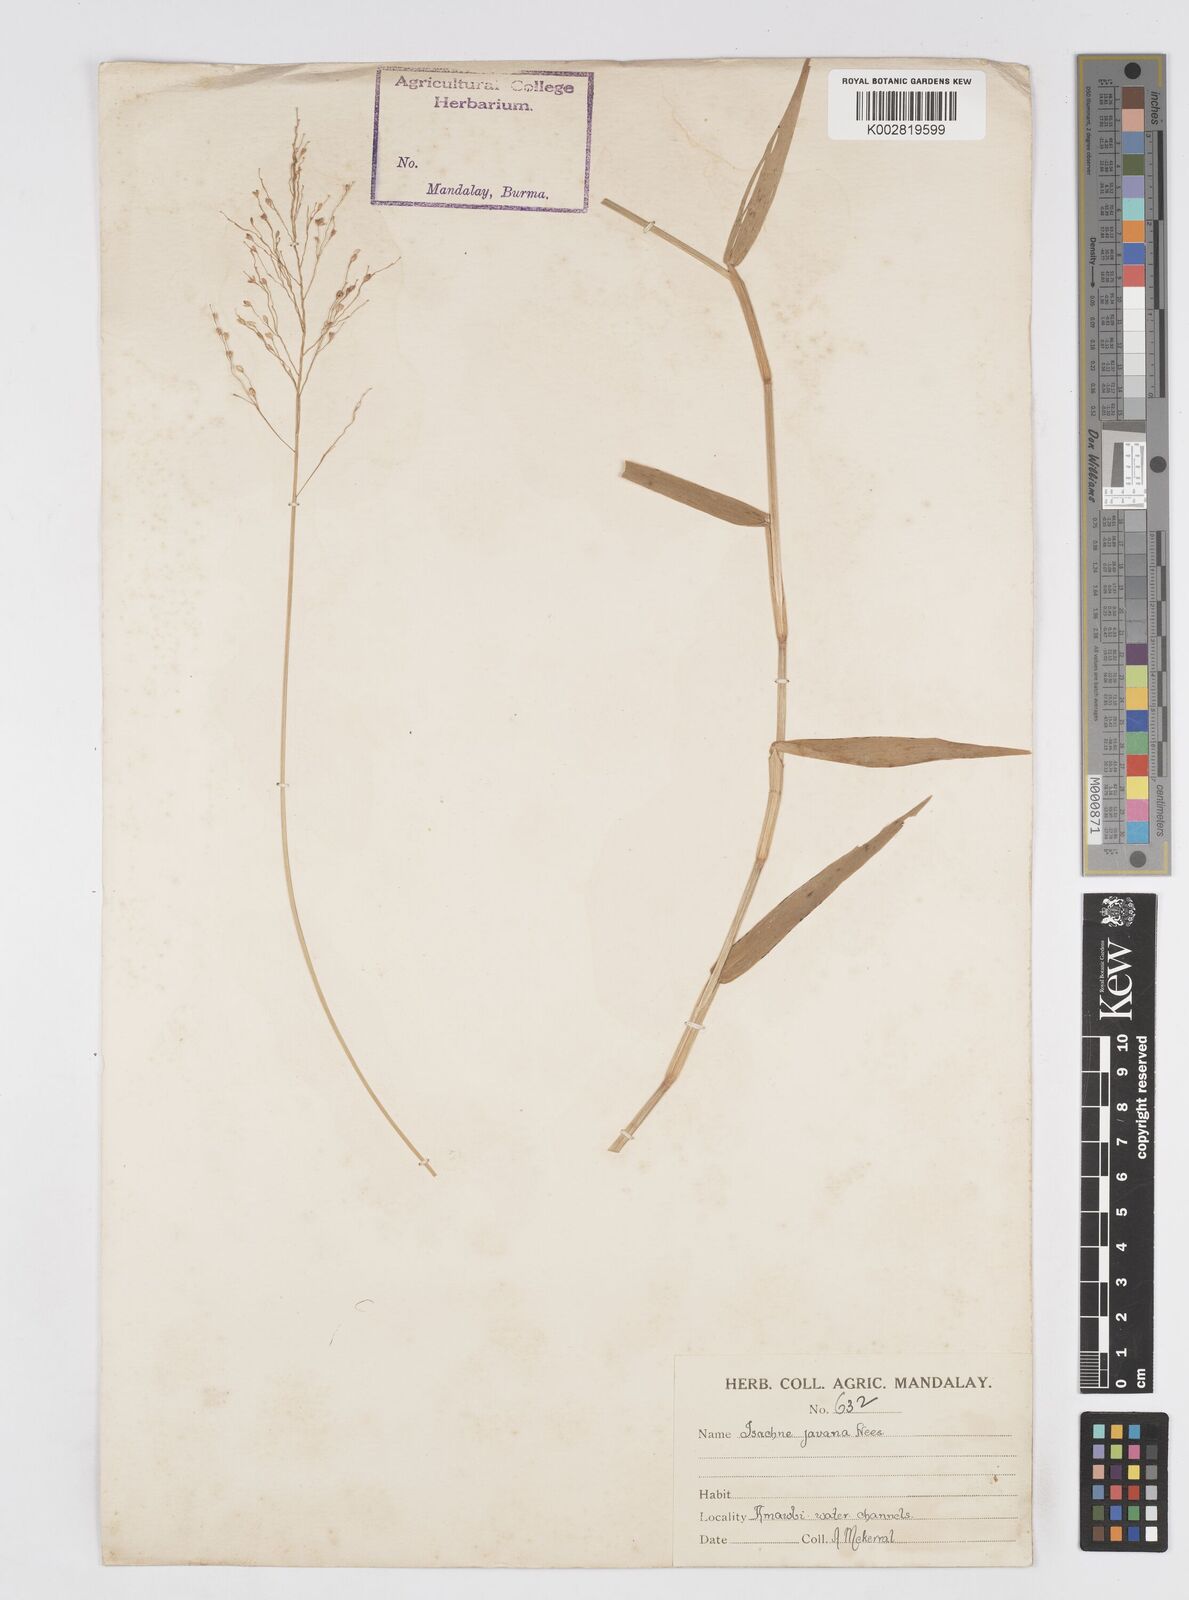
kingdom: Plantae
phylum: Tracheophyta
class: Liliopsida
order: Poales
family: Poaceae
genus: Isachne
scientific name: Isachne kinabaluensis
